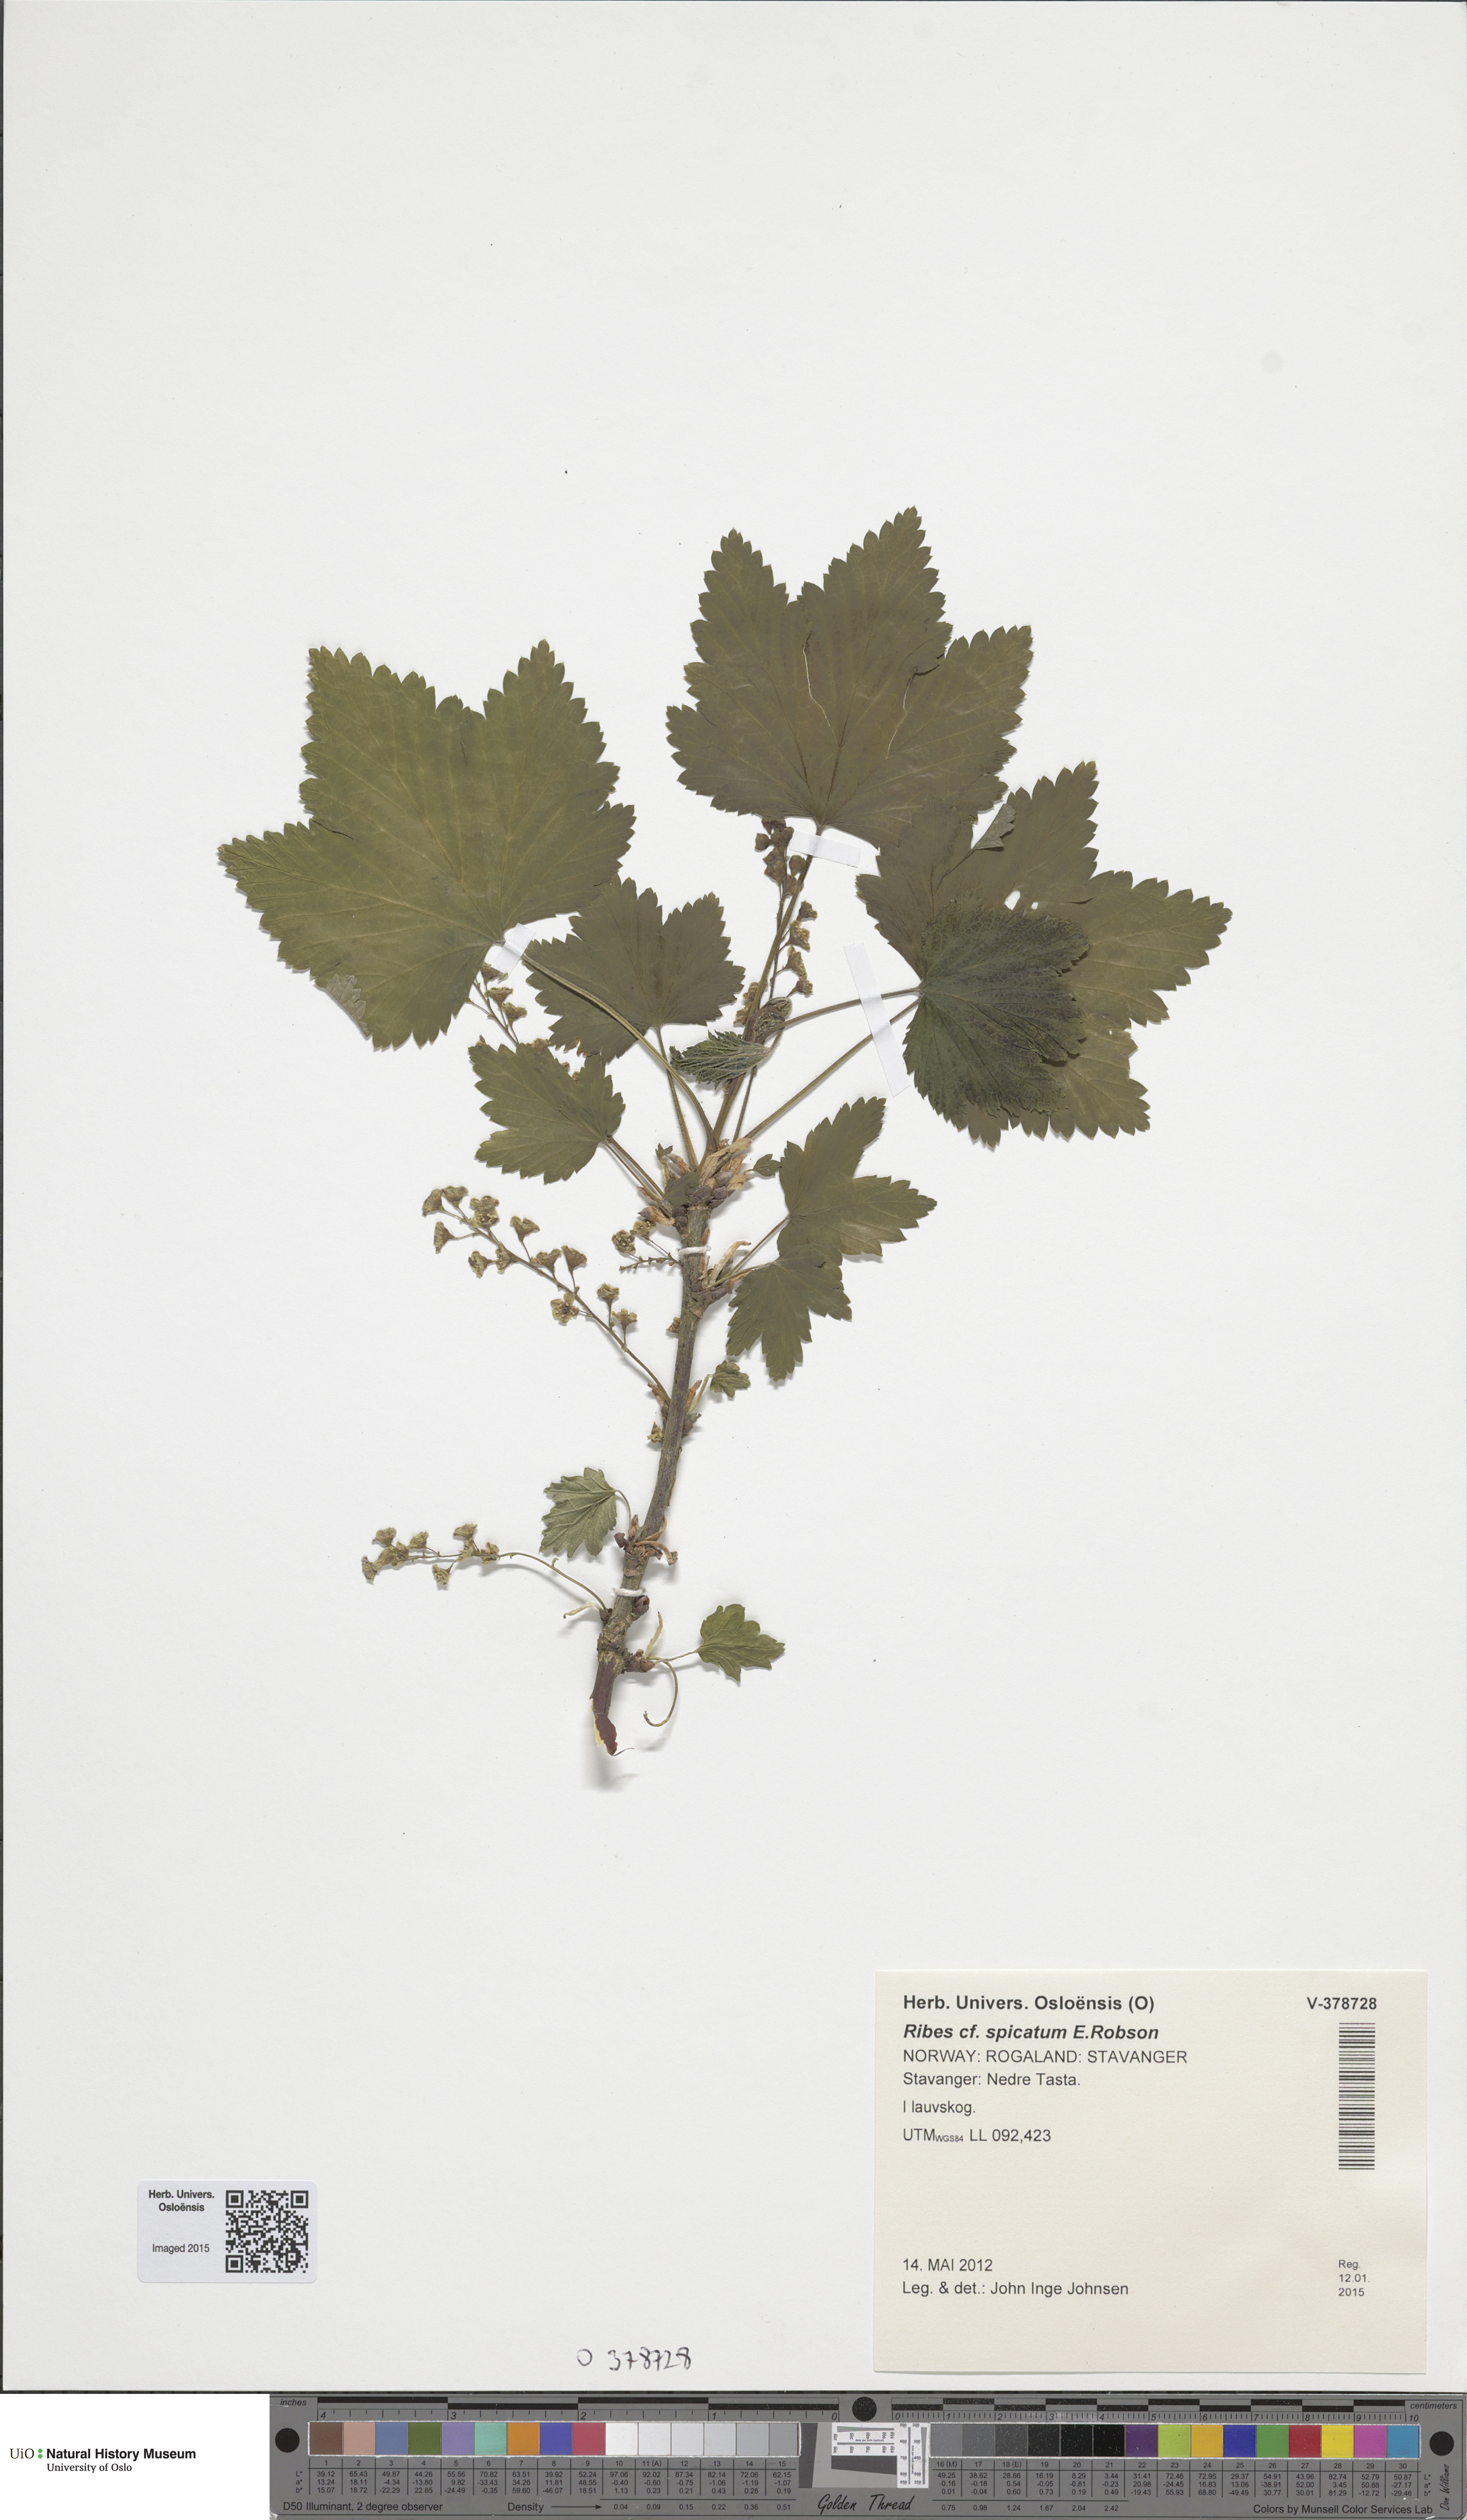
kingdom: Plantae
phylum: Tracheophyta
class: Magnoliopsida
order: Saxifragales
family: Grossulariaceae
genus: Ribes
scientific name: Ribes spicatum
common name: Downy currant
